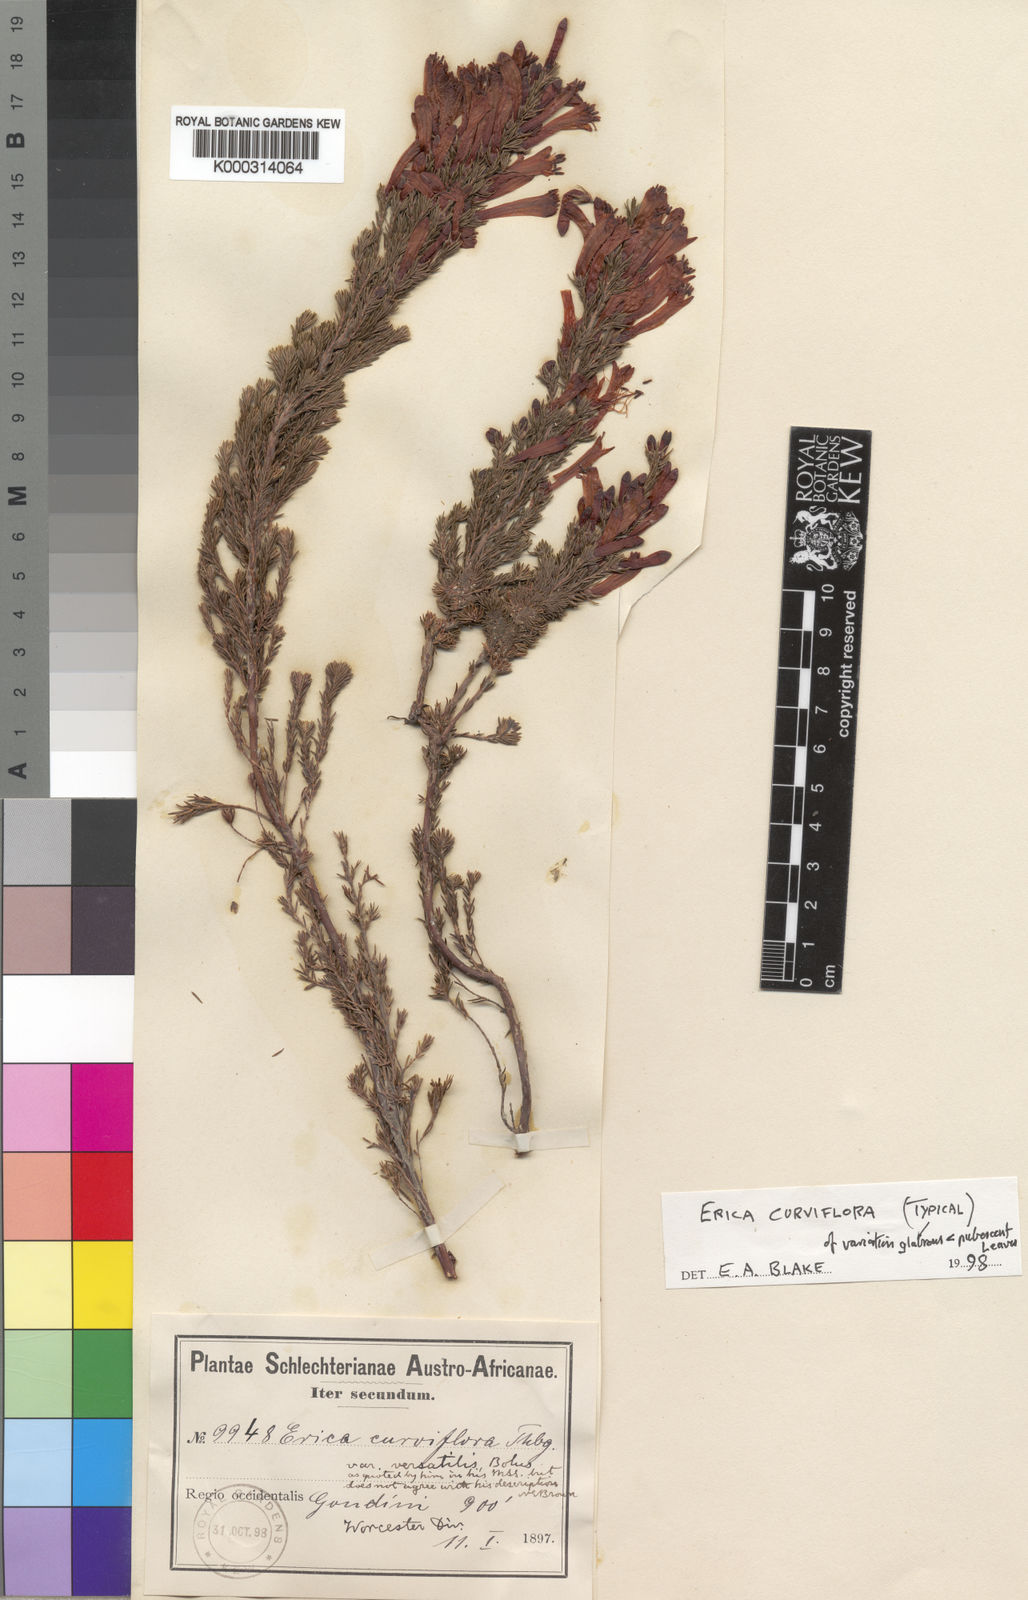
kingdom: Plantae
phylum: Tracheophyta
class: Magnoliopsida
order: Ericales
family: Ericaceae
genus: Erica
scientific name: Erica
